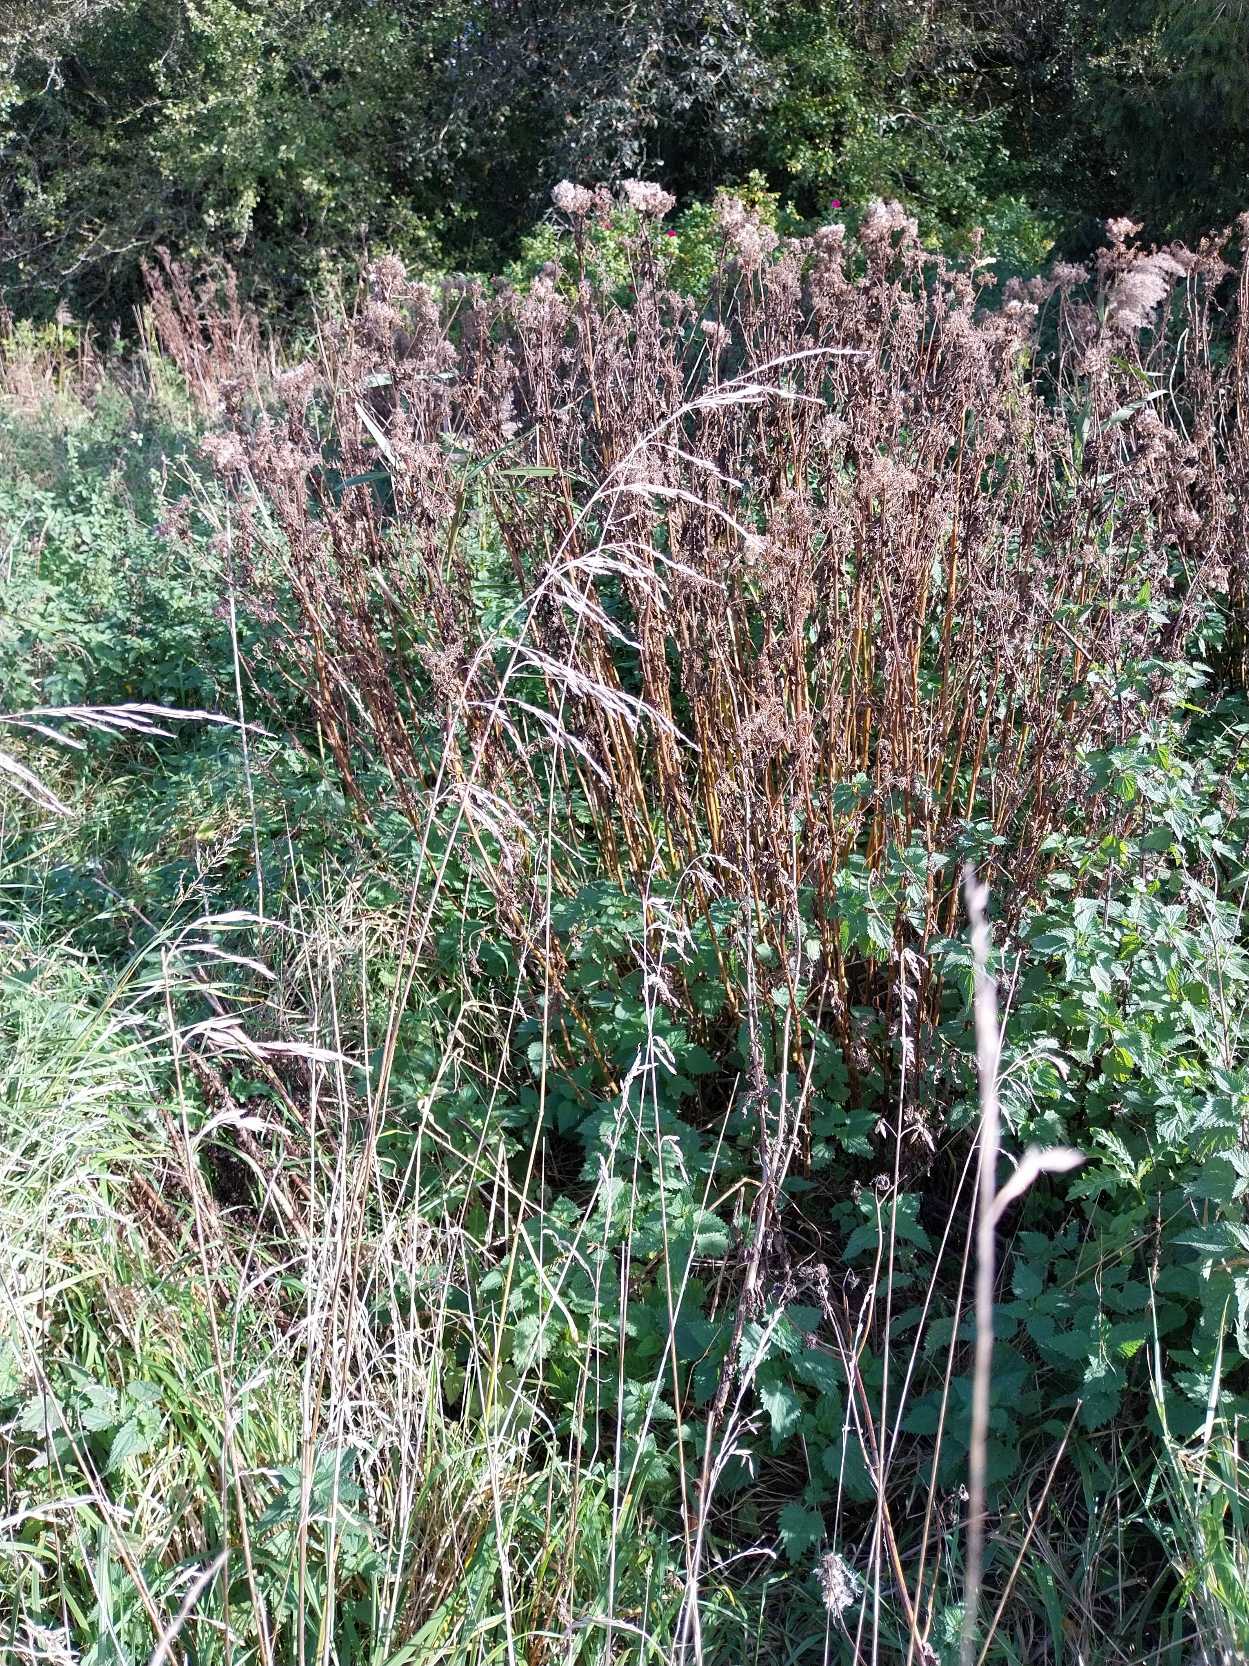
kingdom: Plantae
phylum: Tracheophyta
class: Liliopsida
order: Poales
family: Poaceae
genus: Lolium
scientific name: Lolium arundinaceum
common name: Strand-svingel
